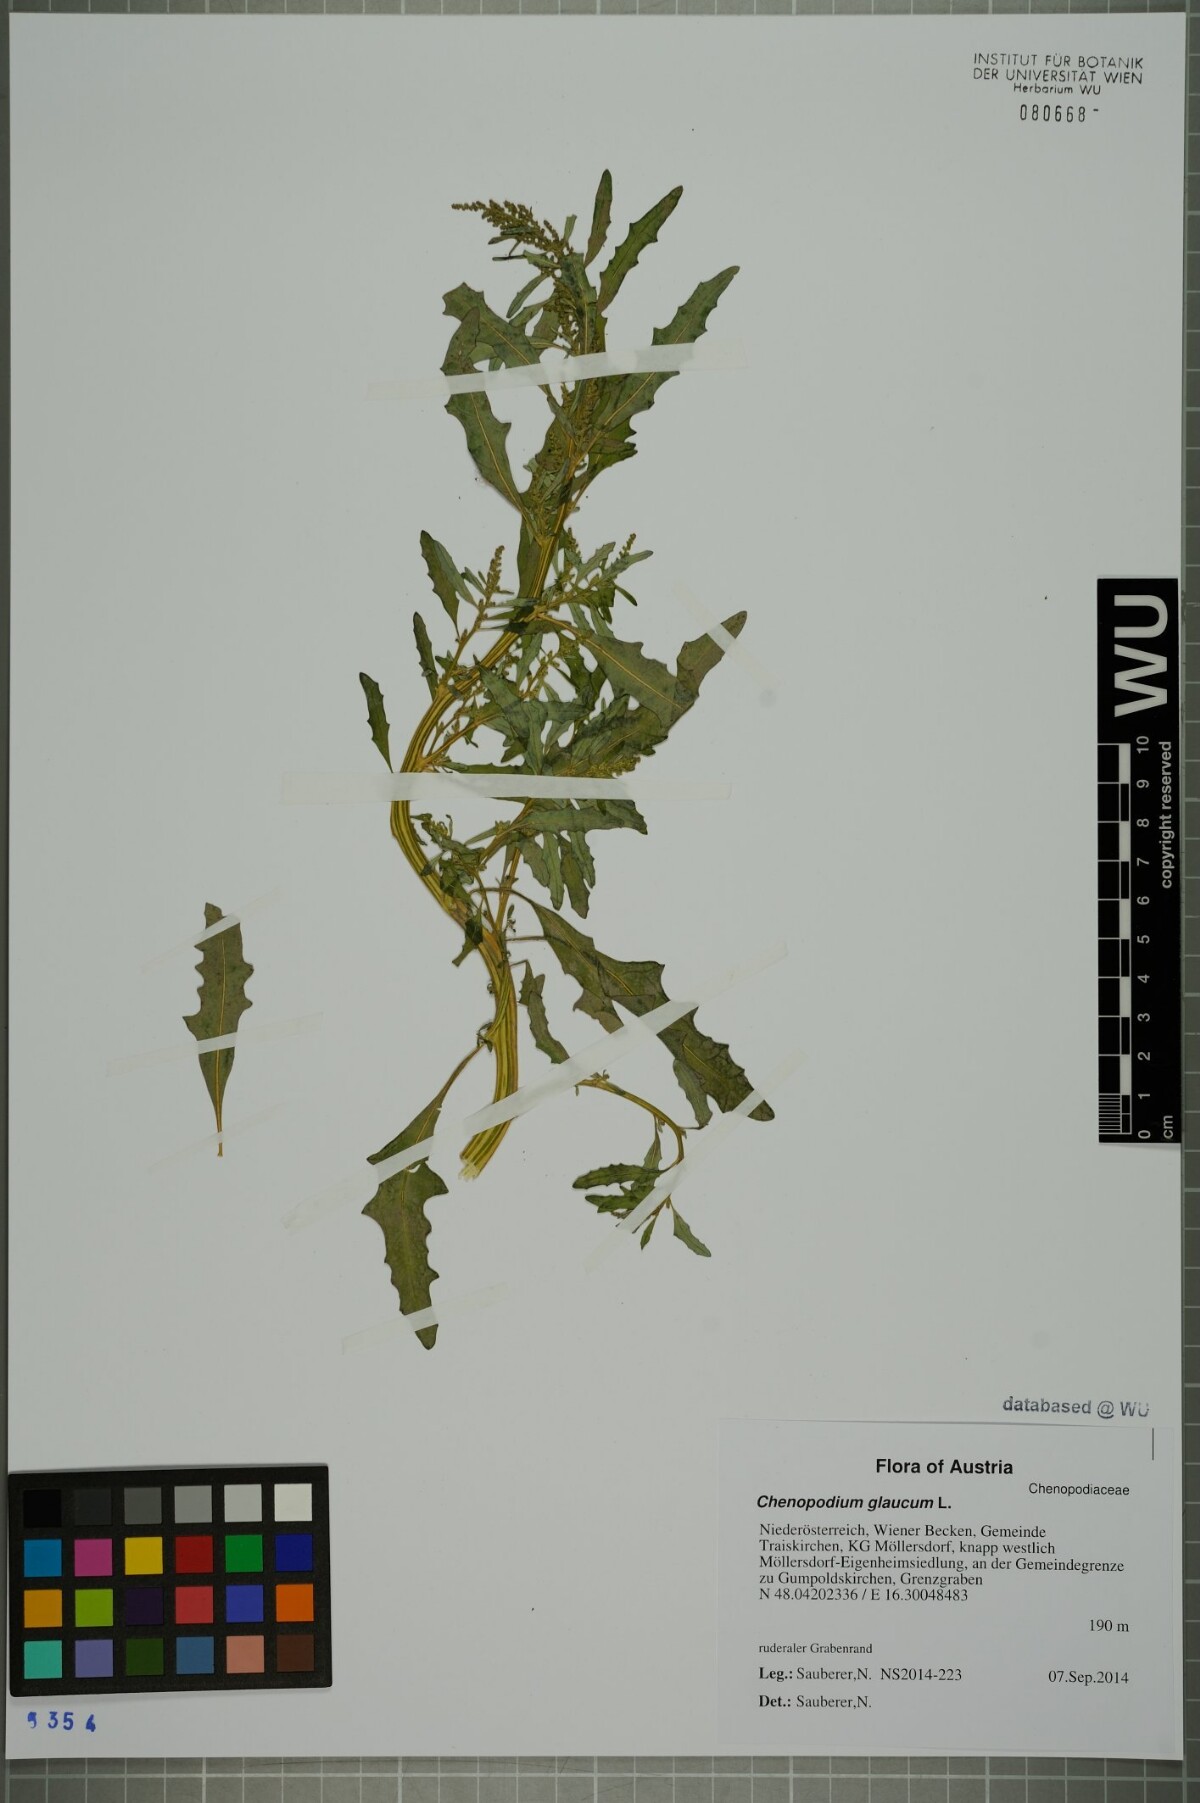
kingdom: Plantae
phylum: Tracheophyta
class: Magnoliopsida
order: Caryophyllales
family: Amaranthaceae
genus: Oxybasis
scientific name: Oxybasis glauca
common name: Glaucous goosefoot
